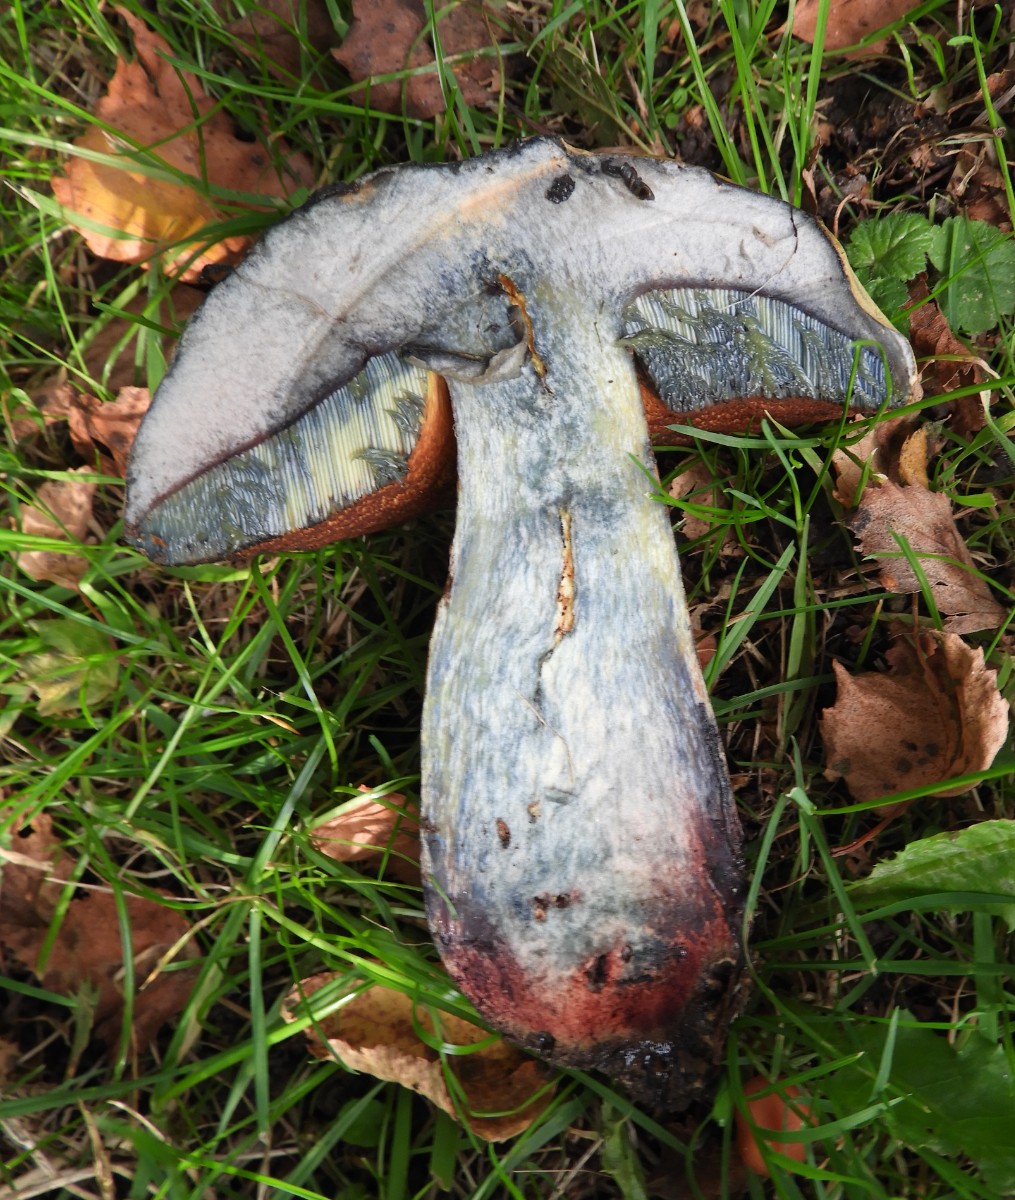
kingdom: Fungi
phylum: Basidiomycota
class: Agaricomycetes
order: Boletales
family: Boletaceae
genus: Suillellus
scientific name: Suillellus luridus
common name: netstokket indigorørhat
